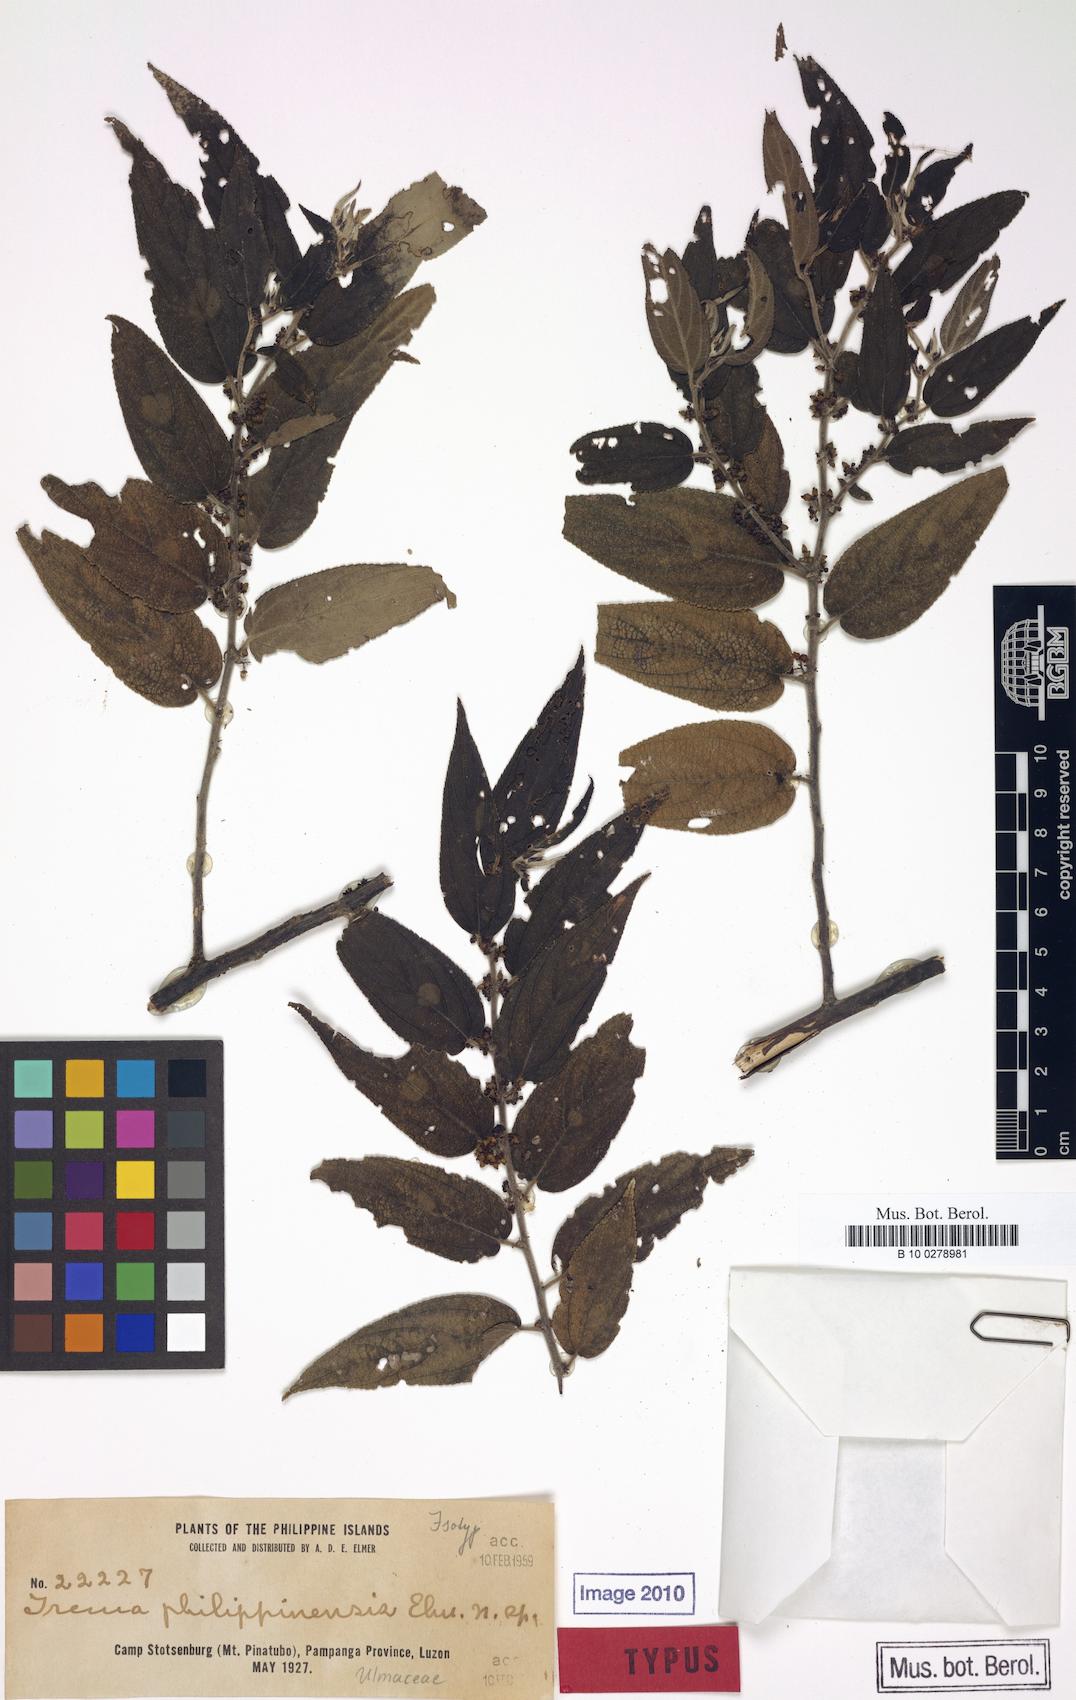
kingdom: Plantae
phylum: Tracheophyta
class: Magnoliopsida
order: Rosales
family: Cannabaceae
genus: Trema
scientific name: Trema eurhynchum
